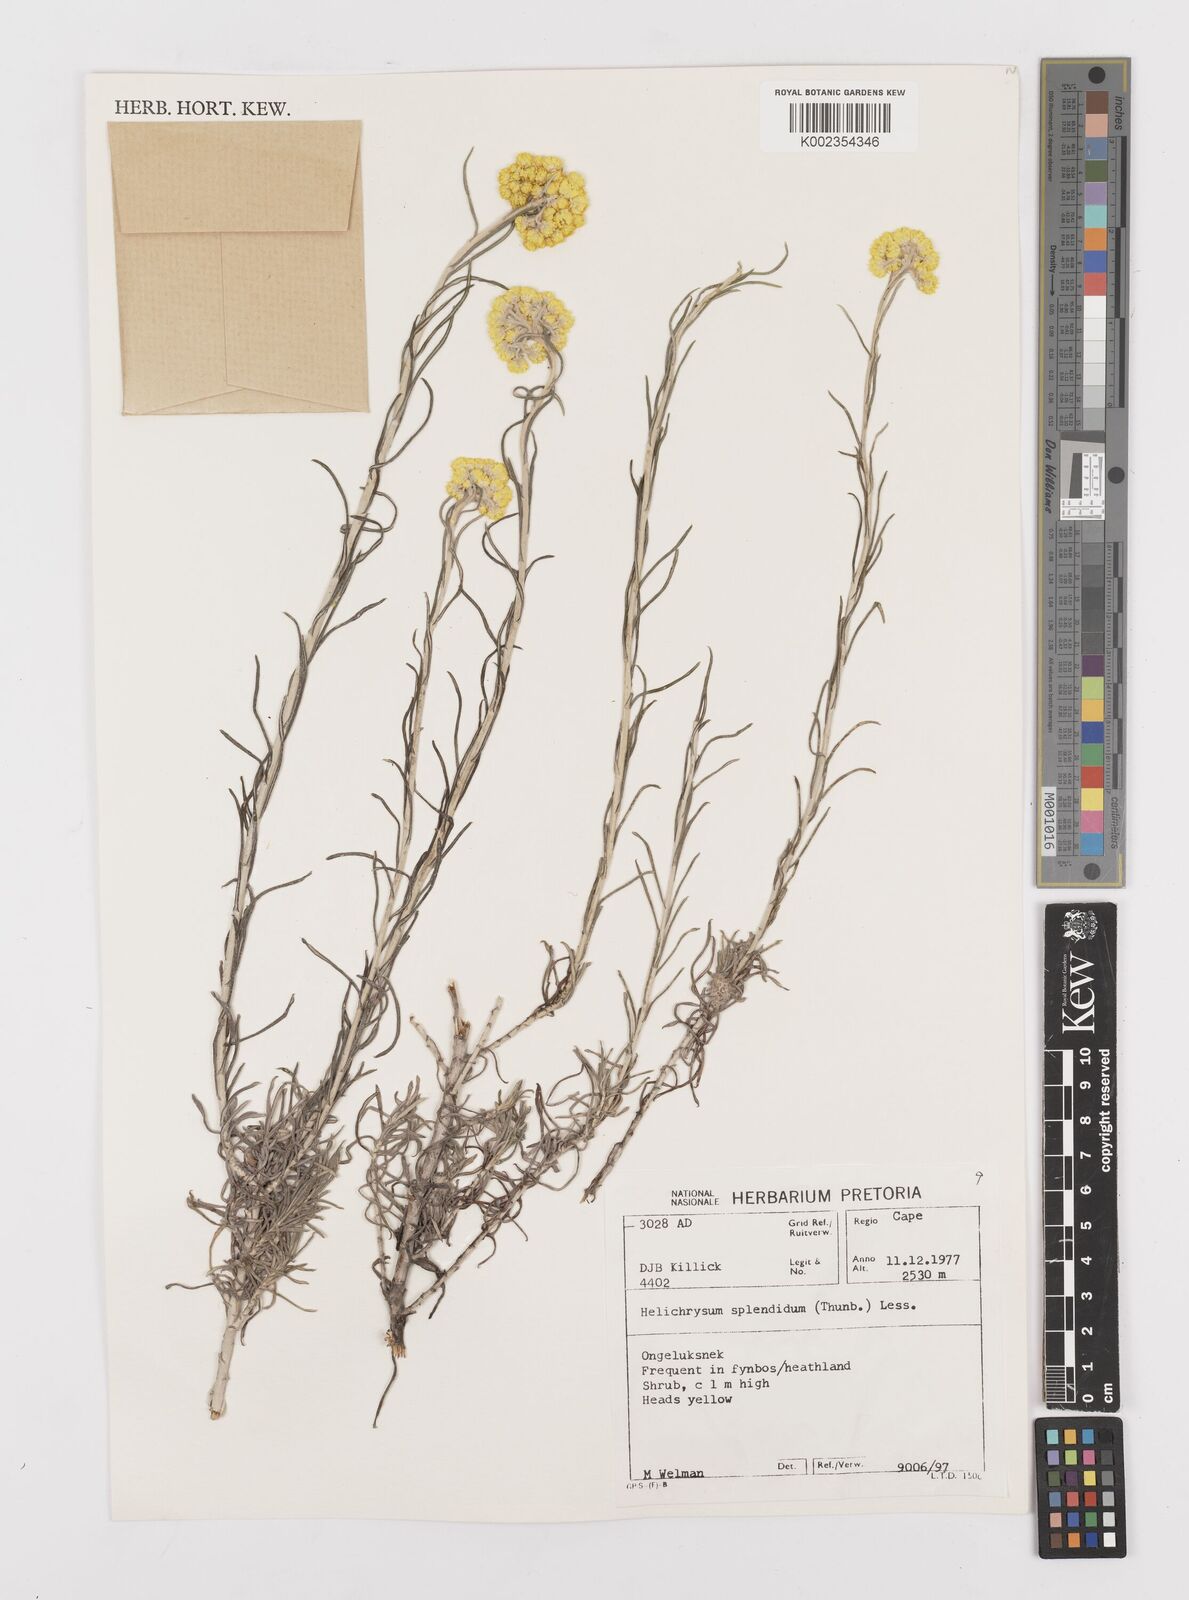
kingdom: Plantae
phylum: Tracheophyta
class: Magnoliopsida
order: Asterales
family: Asteraceae
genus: Helichrysum
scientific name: Helichrysum splendidum
